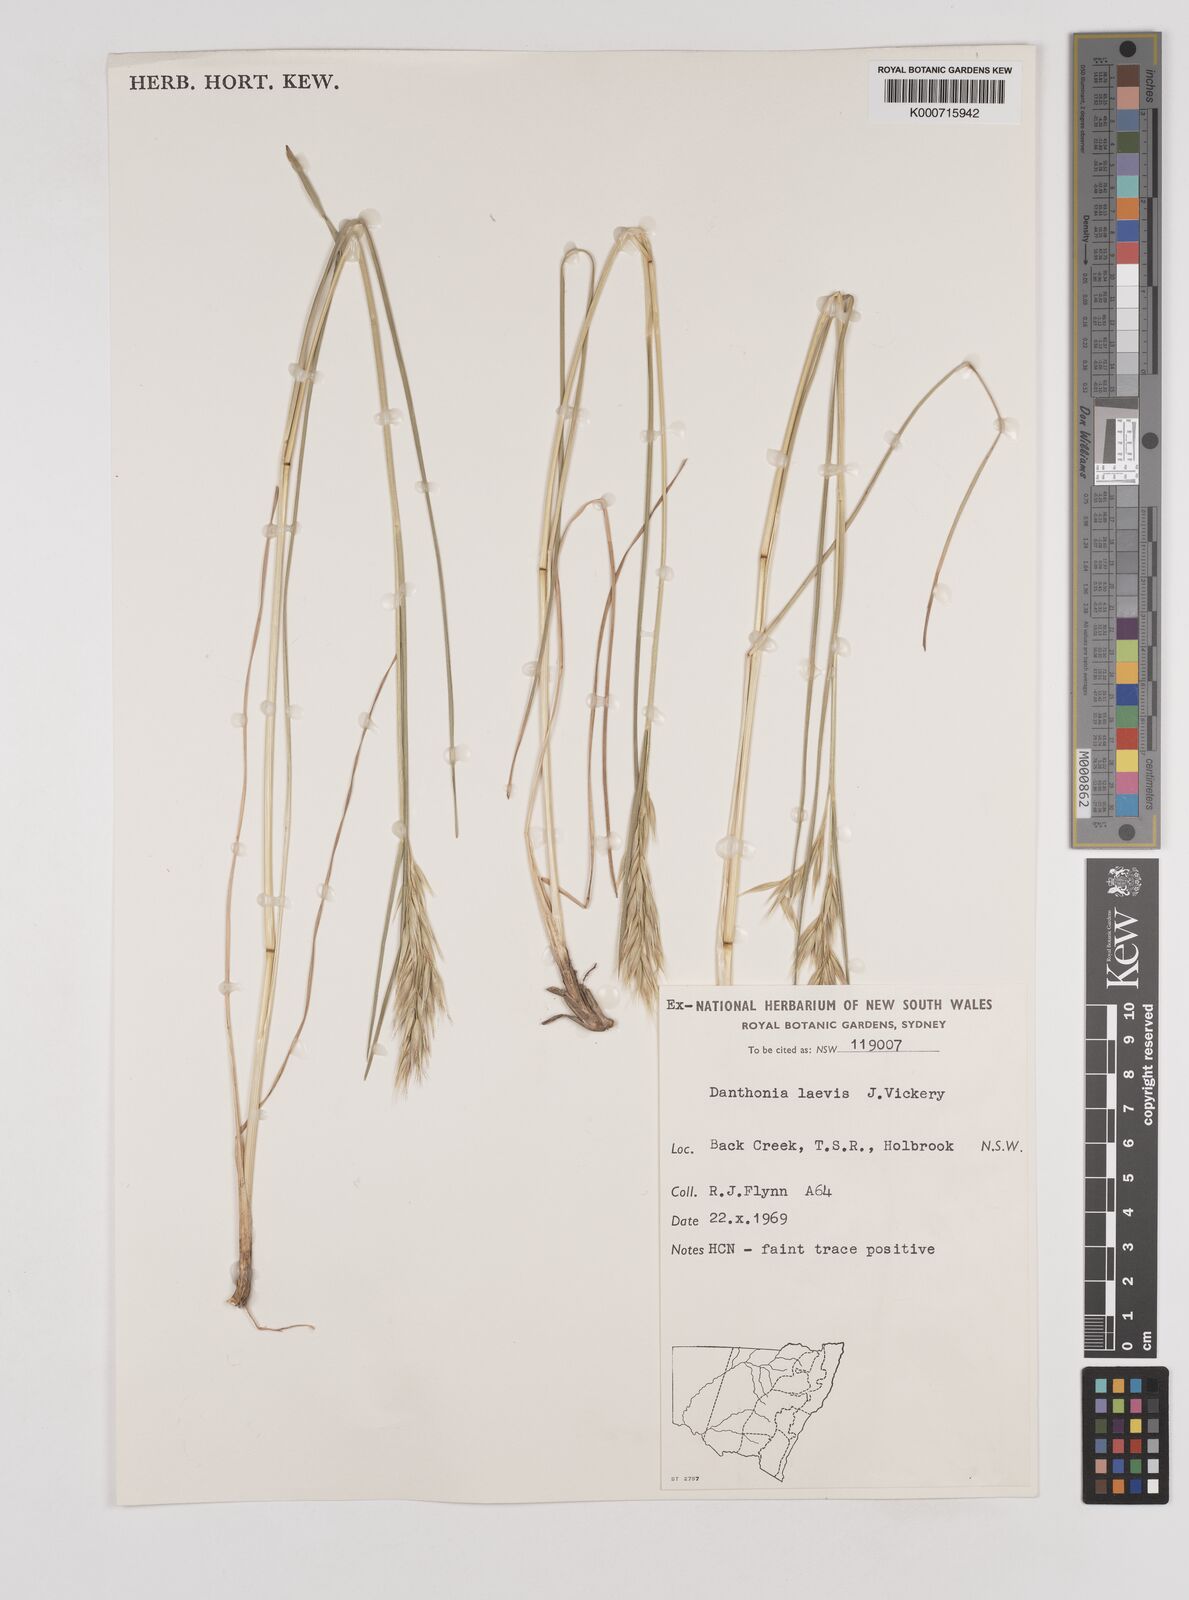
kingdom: Plantae
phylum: Tracheophyta
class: Liliopsida
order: Poales
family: Poaceae
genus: Rytidosperma
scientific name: Rytidosperma laeve
